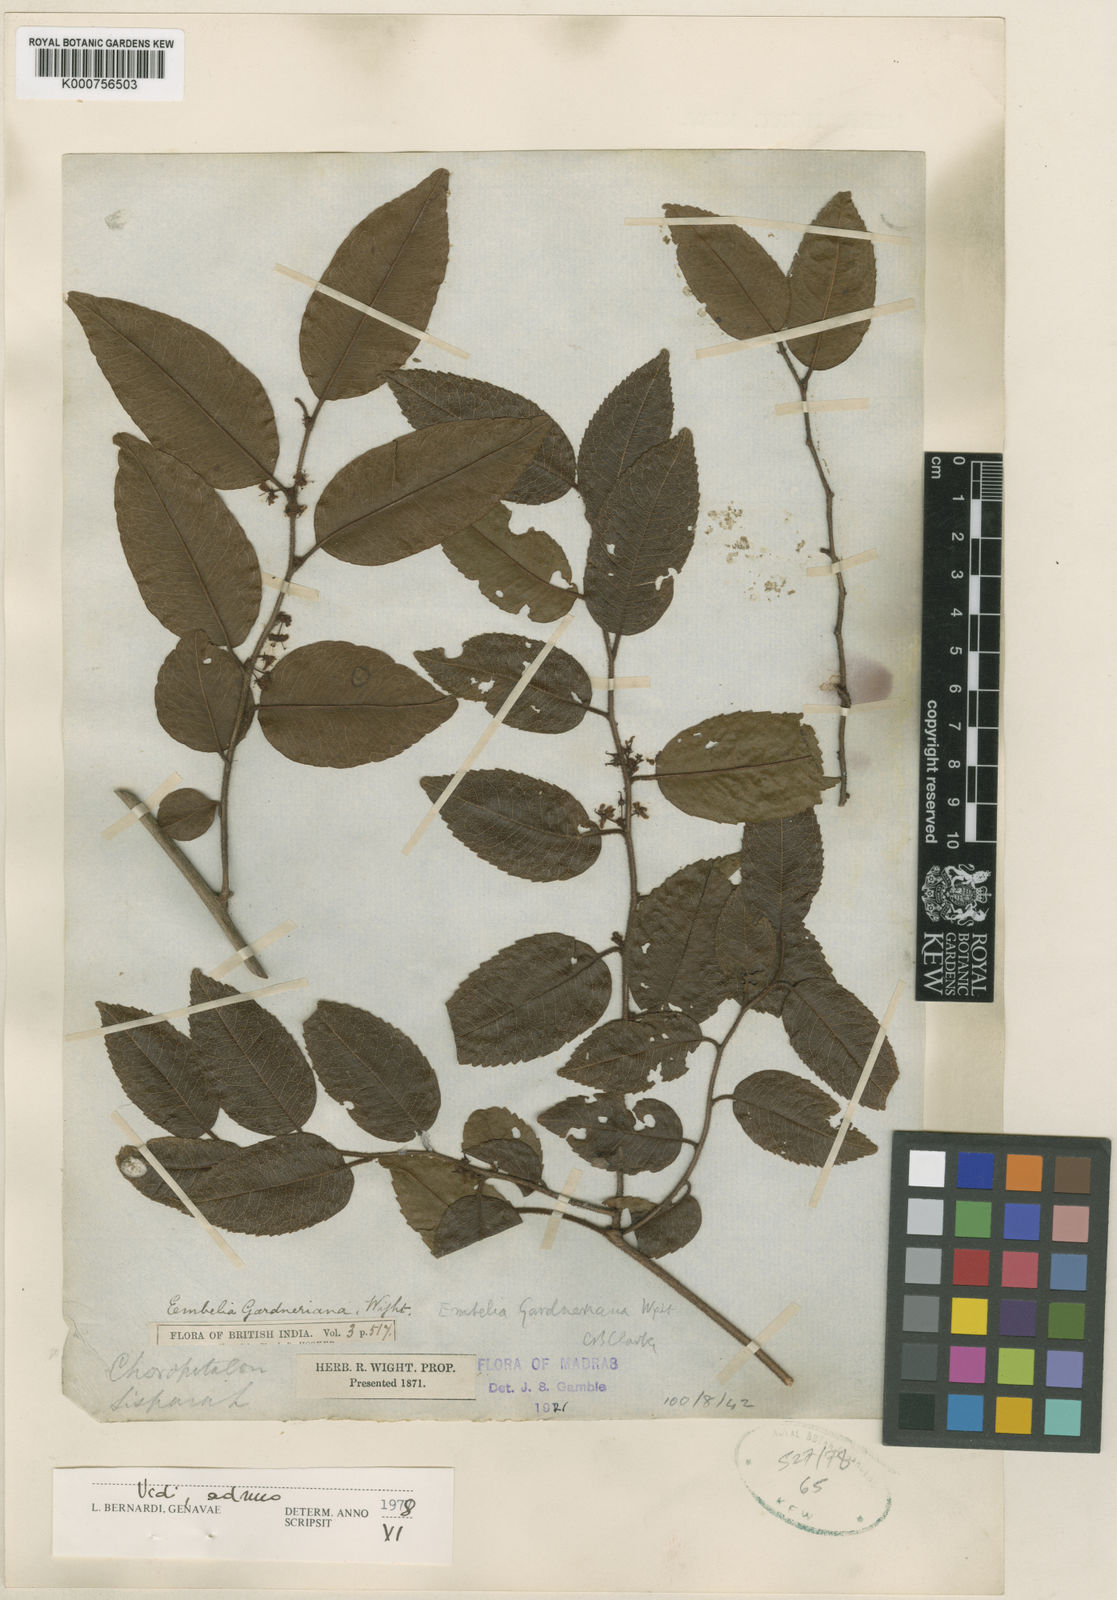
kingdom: Plantae
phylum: Tracheophyta
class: Magnoliopsida
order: Ericales
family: Primulaceae
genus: Embelia
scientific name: Embelia gardneriana
